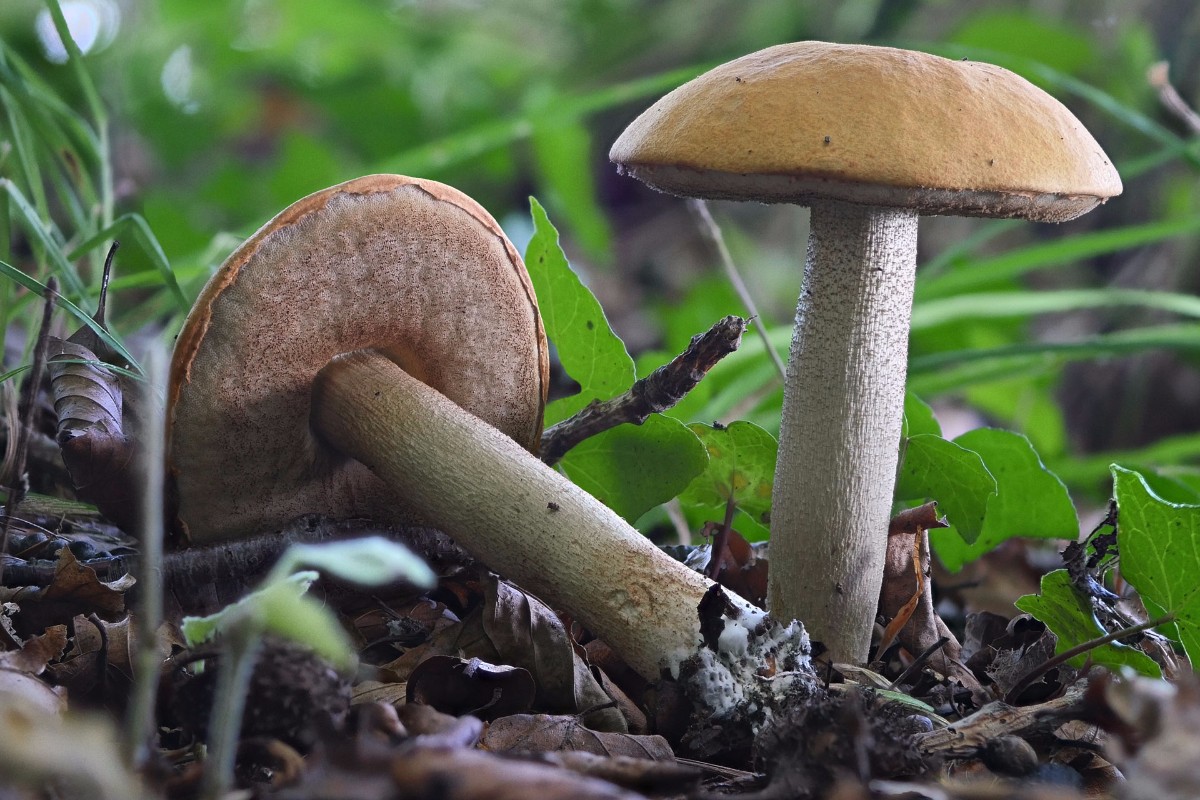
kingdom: Fungi
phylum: Basidiomycota
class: Agaricomycetes
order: Boletales
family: Boletaceae
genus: Leccinum
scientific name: Leccinum albostipitatum
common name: aspe-skælrørhat
